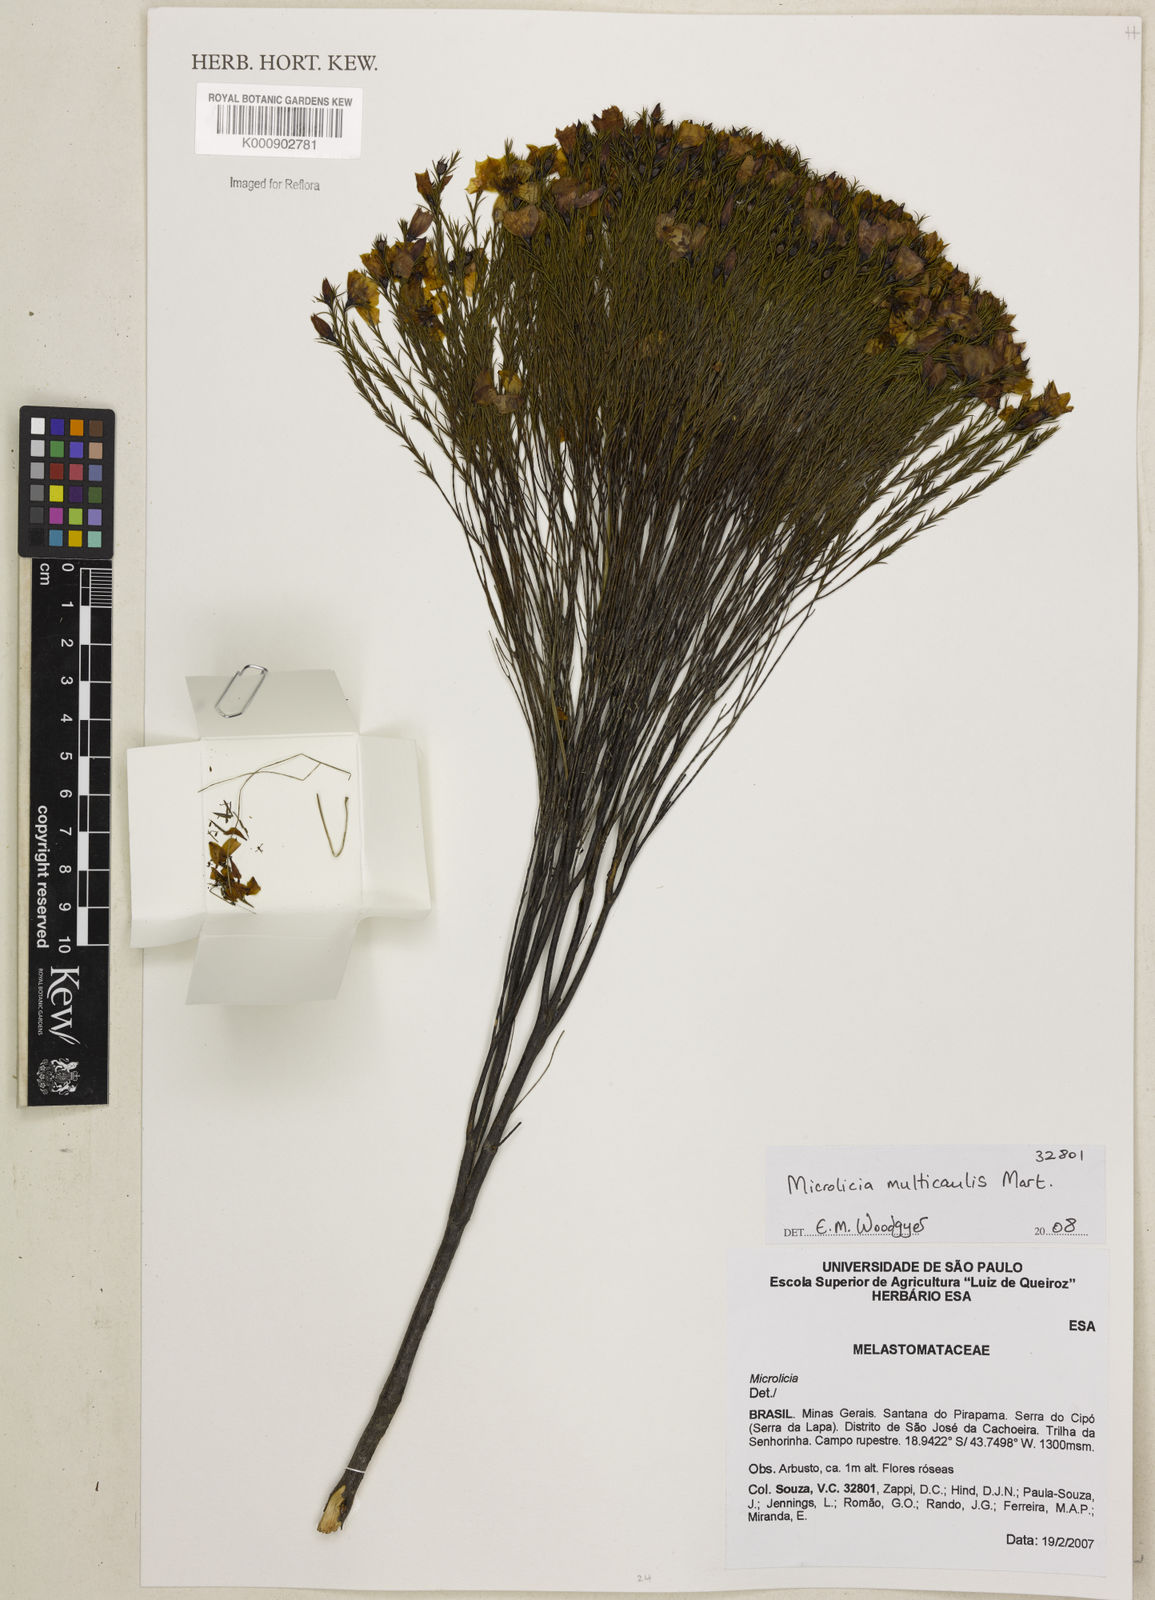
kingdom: Plantae
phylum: Tracheophyta
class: Magnoliopsida
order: Myrtales
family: Melastomataceae
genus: Microlicia
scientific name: Microlicia multicaulis
